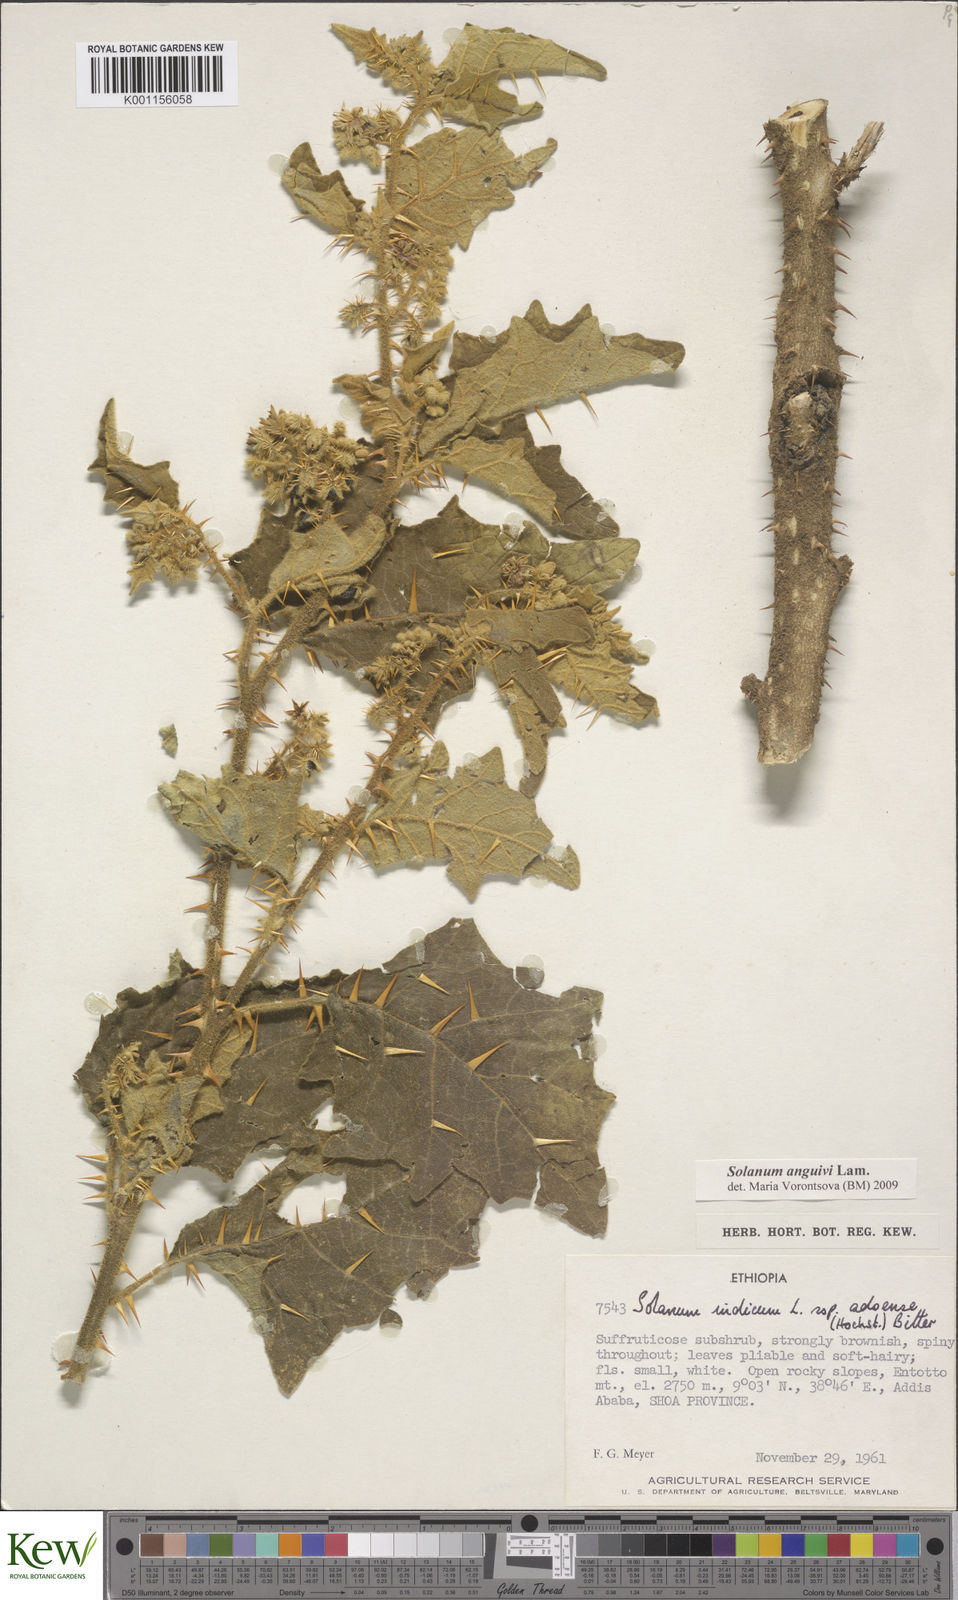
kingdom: Plantae
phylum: Tracheophyta
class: Magnoliopsida
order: Solanales
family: Solanaceae
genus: Solanum
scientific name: Solanum anguivi
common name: Forest bitterberry
